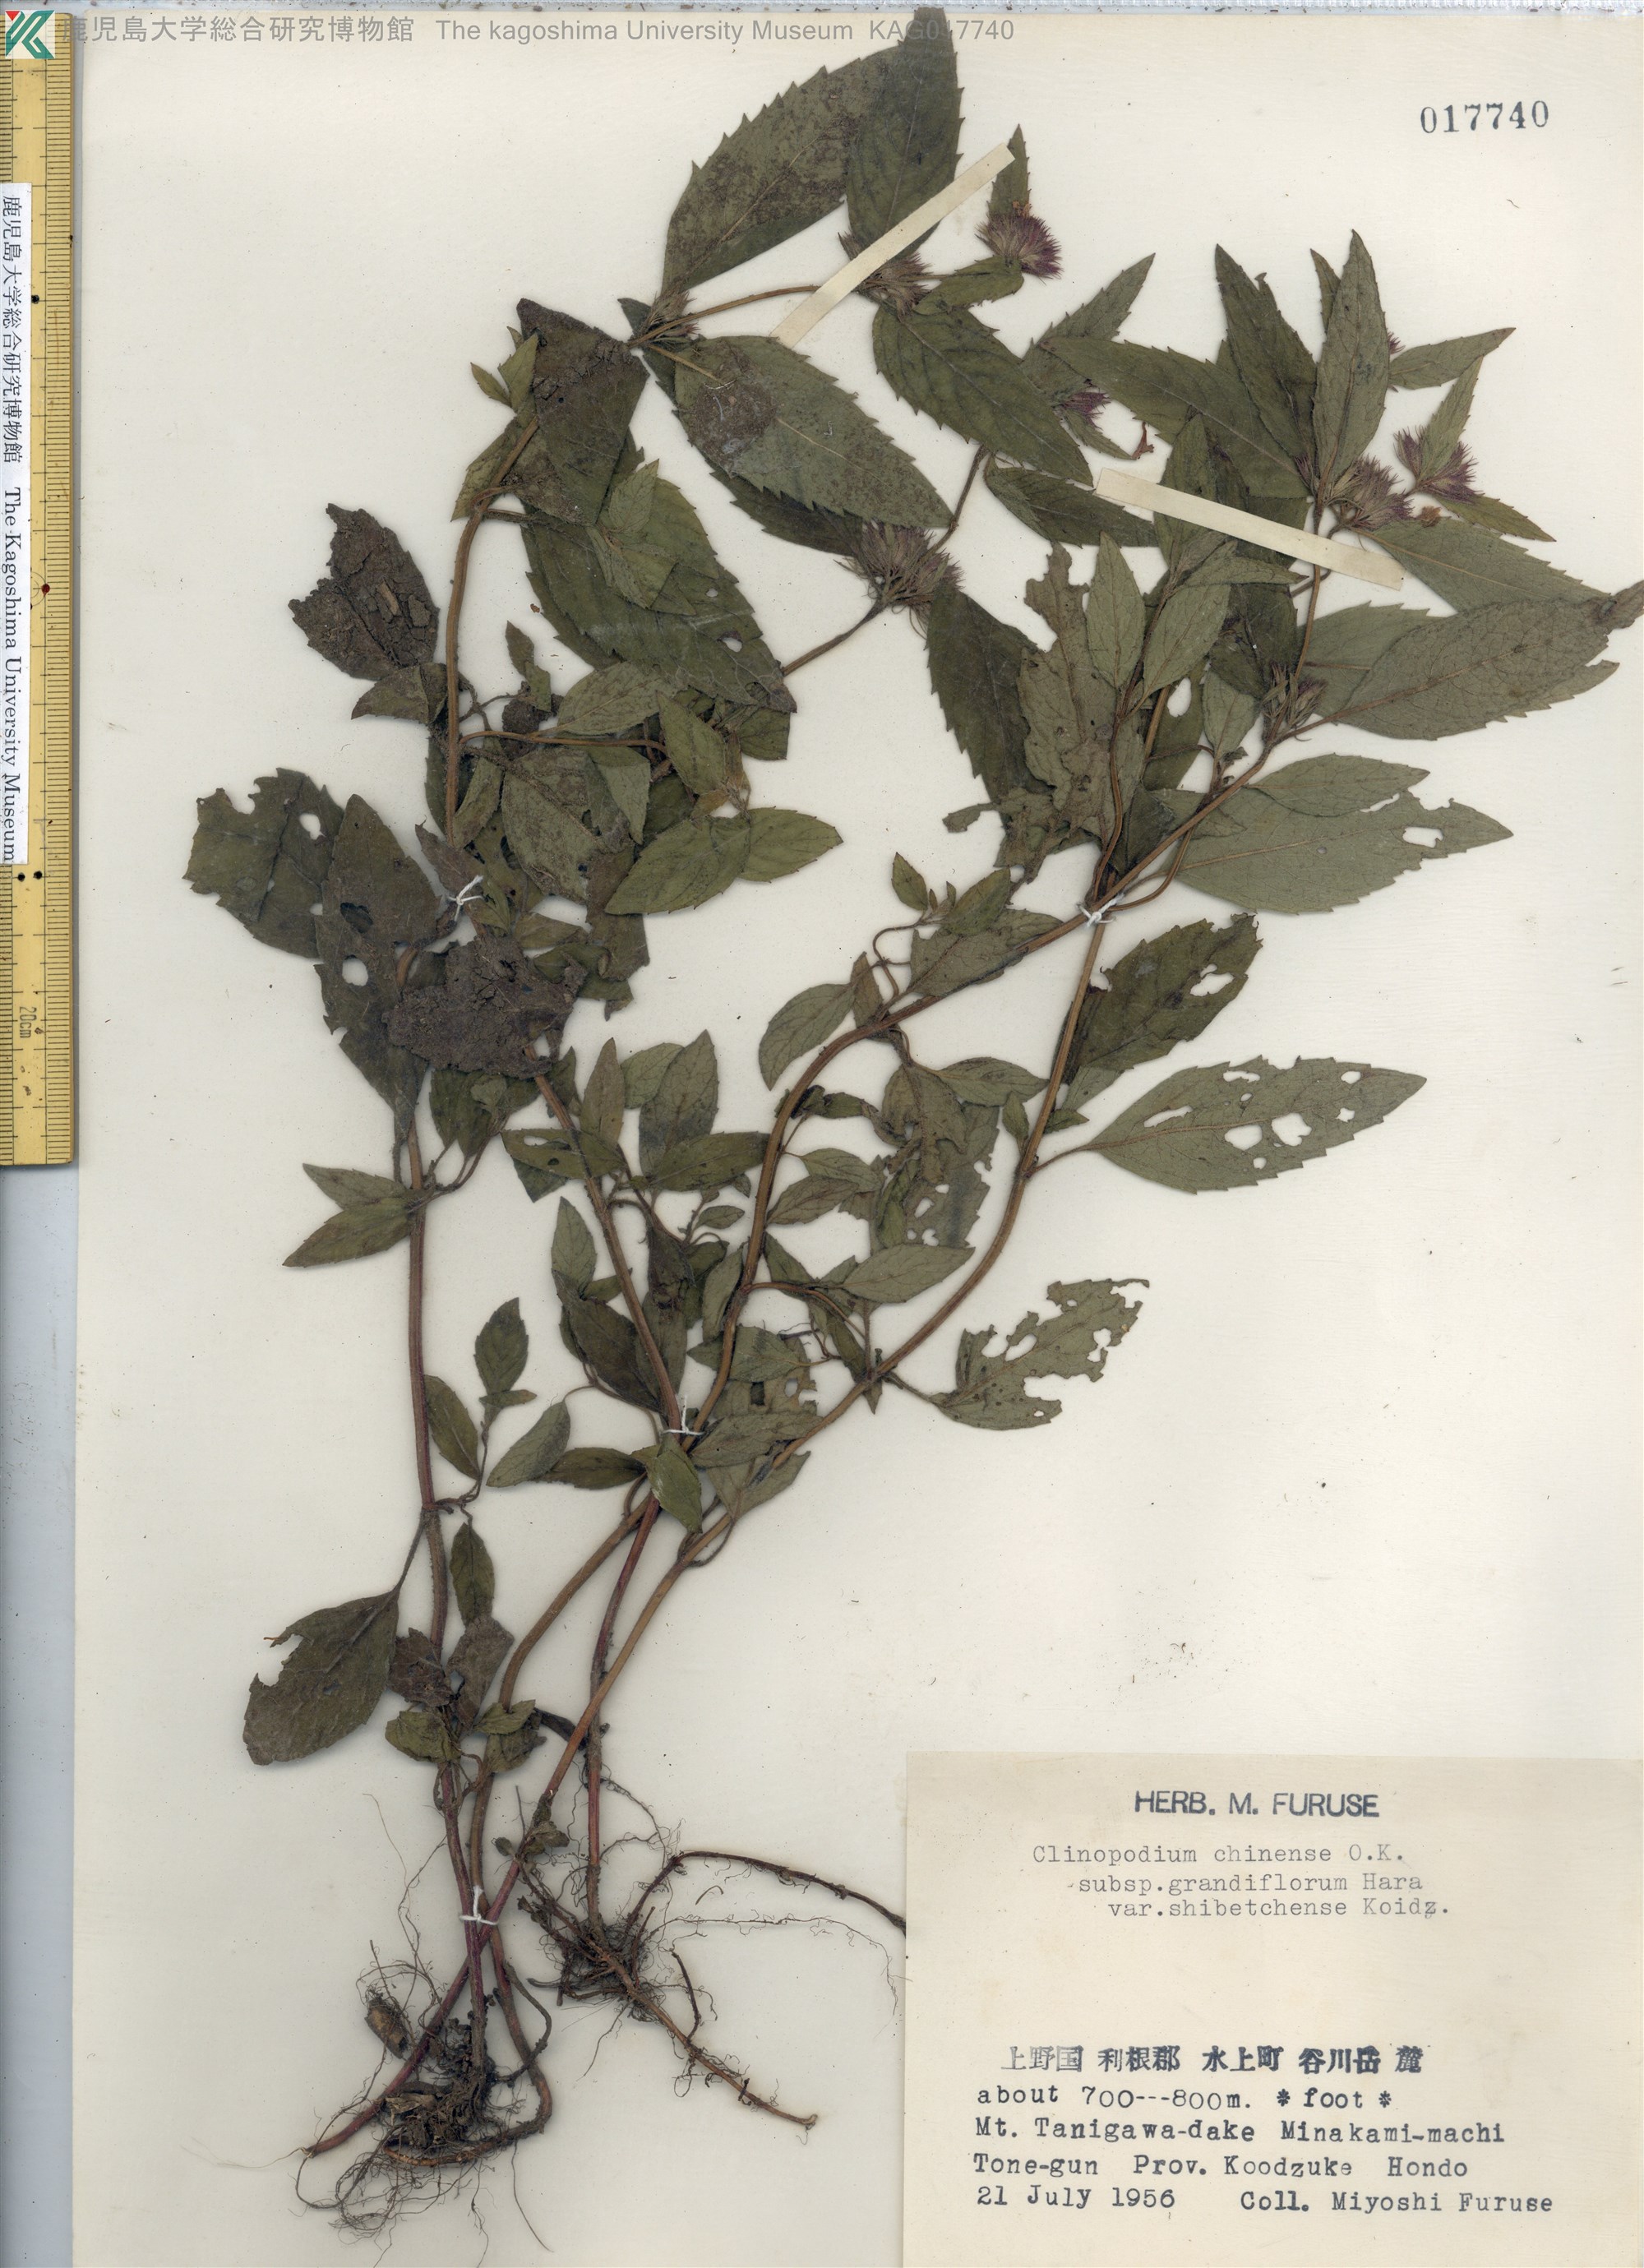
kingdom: Plantae
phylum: Tracheophyta
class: Magnoliopsida
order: Lamiales
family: Lamiaceae
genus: Clinopodium
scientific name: Clinopodium multicaule
